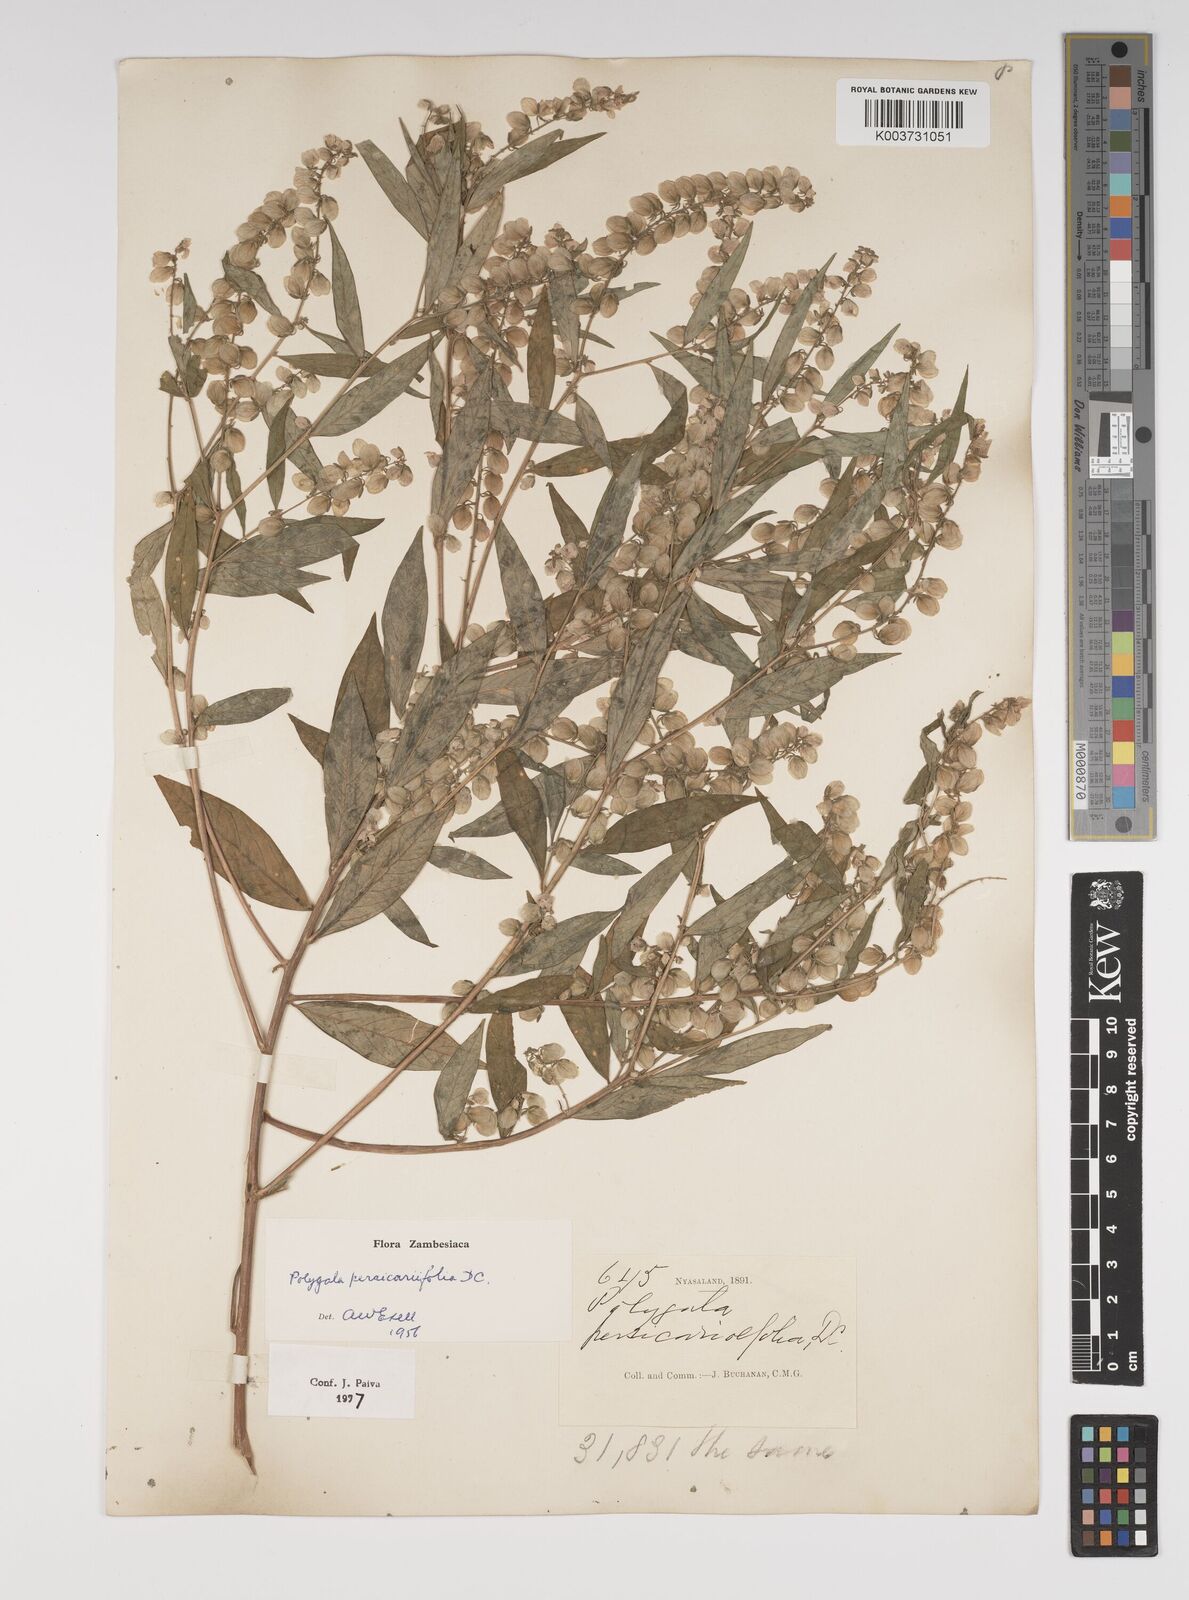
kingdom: Plantae
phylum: Tracheophyta
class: Magnoliopsida
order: Fabales
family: Polygalaceae
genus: Polygala
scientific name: Polygala persicariifolia
